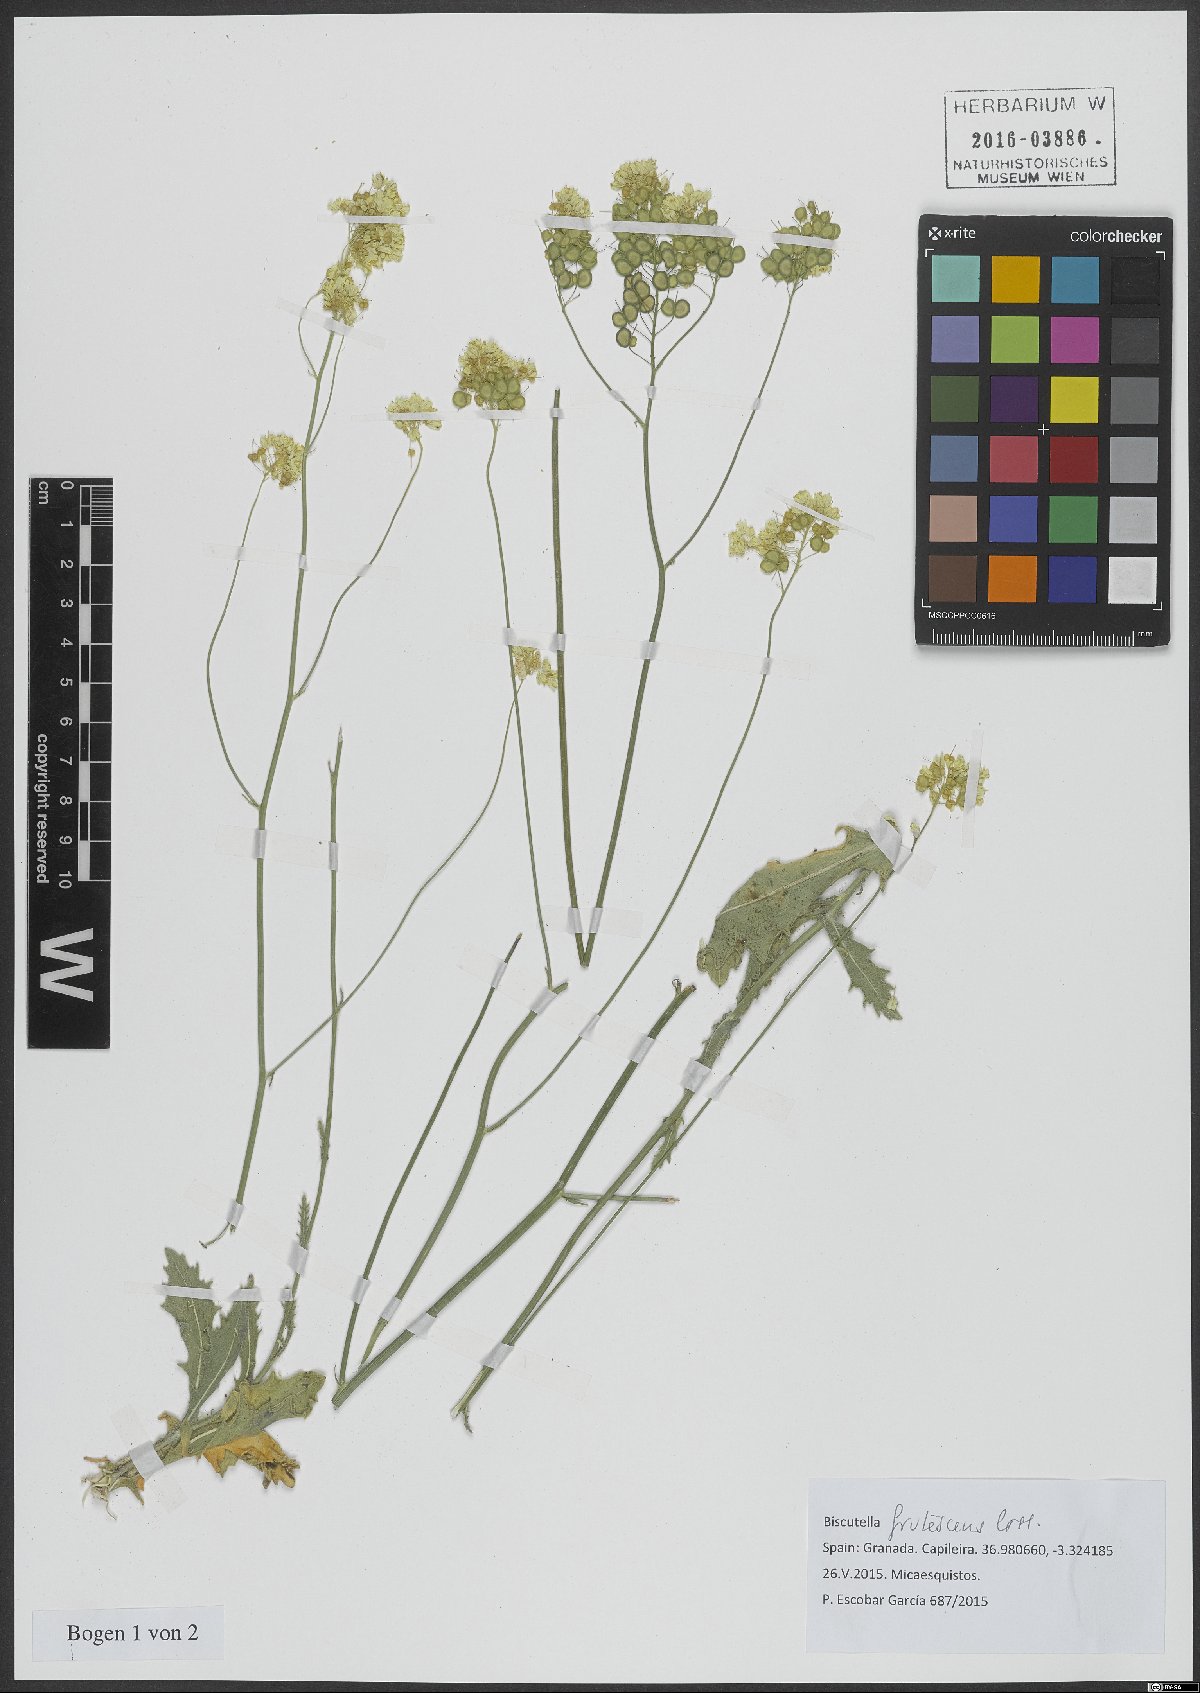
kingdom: Plantae
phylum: Tracheophyta
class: Magnoliopsida
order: Brassicales
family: Brassicaceae
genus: Biscutella
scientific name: Biscutella frutescens
